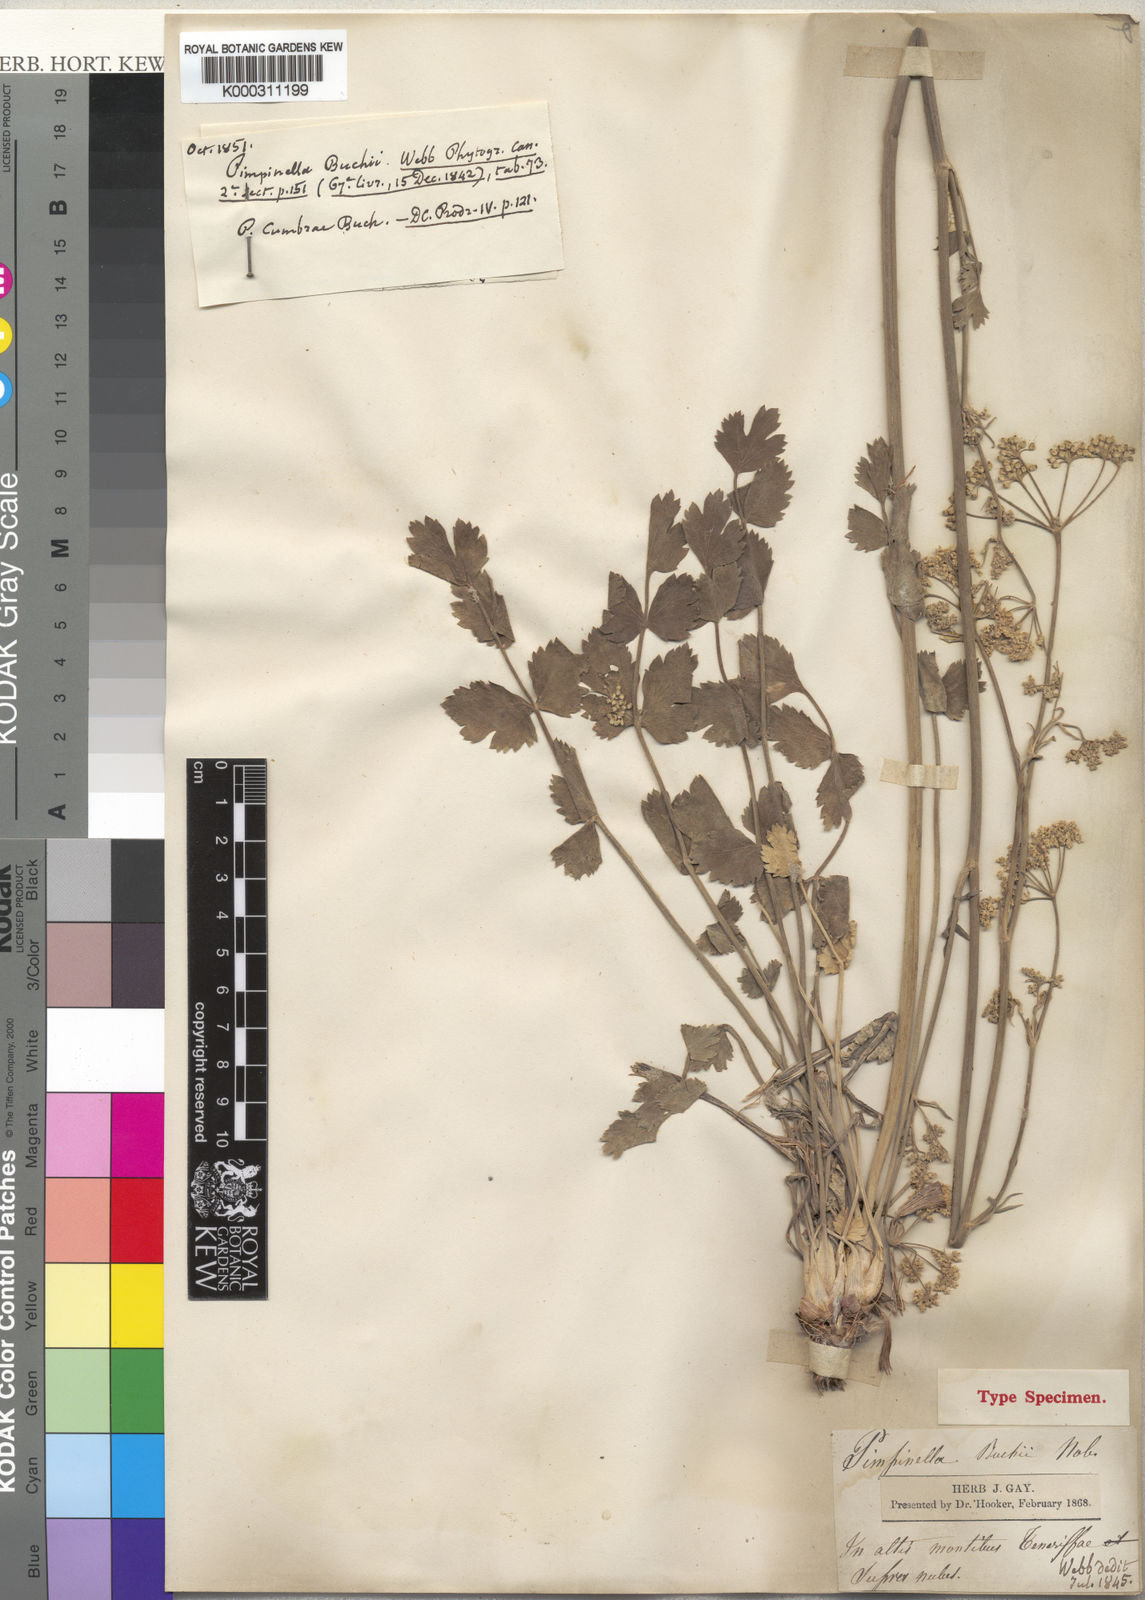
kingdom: Plantae
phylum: Tracheophyta
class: Magnoliopsida
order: Apiales
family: Apiaceae
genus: Pimpinella
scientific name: Pimpinella cumbrae
